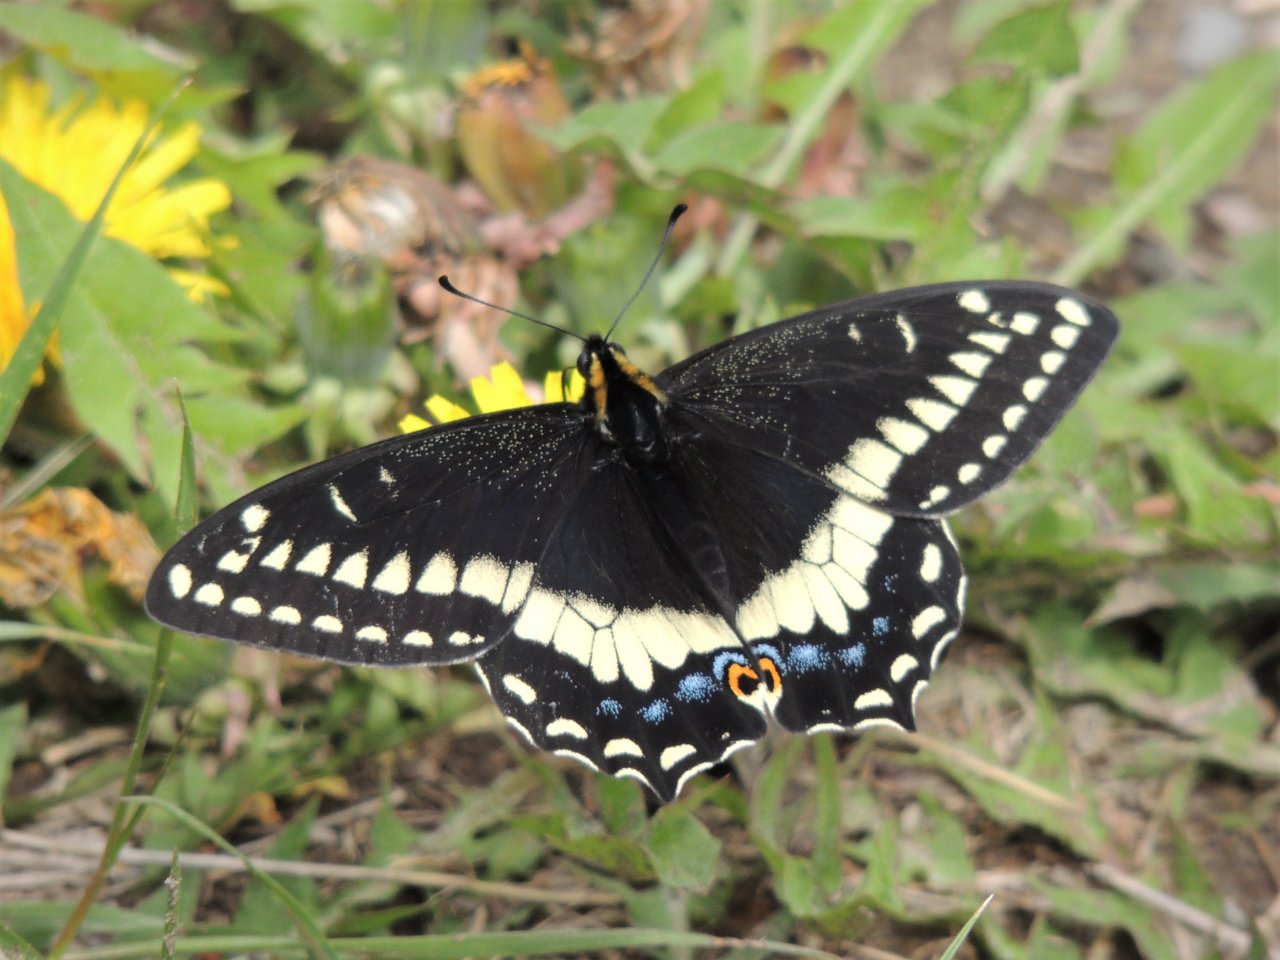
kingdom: Animalia
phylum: Arthropoda
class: Insecta
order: Lepidoptera
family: Papilionidae
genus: Papilio
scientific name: Papilio indra
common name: Indra Swallowtail
